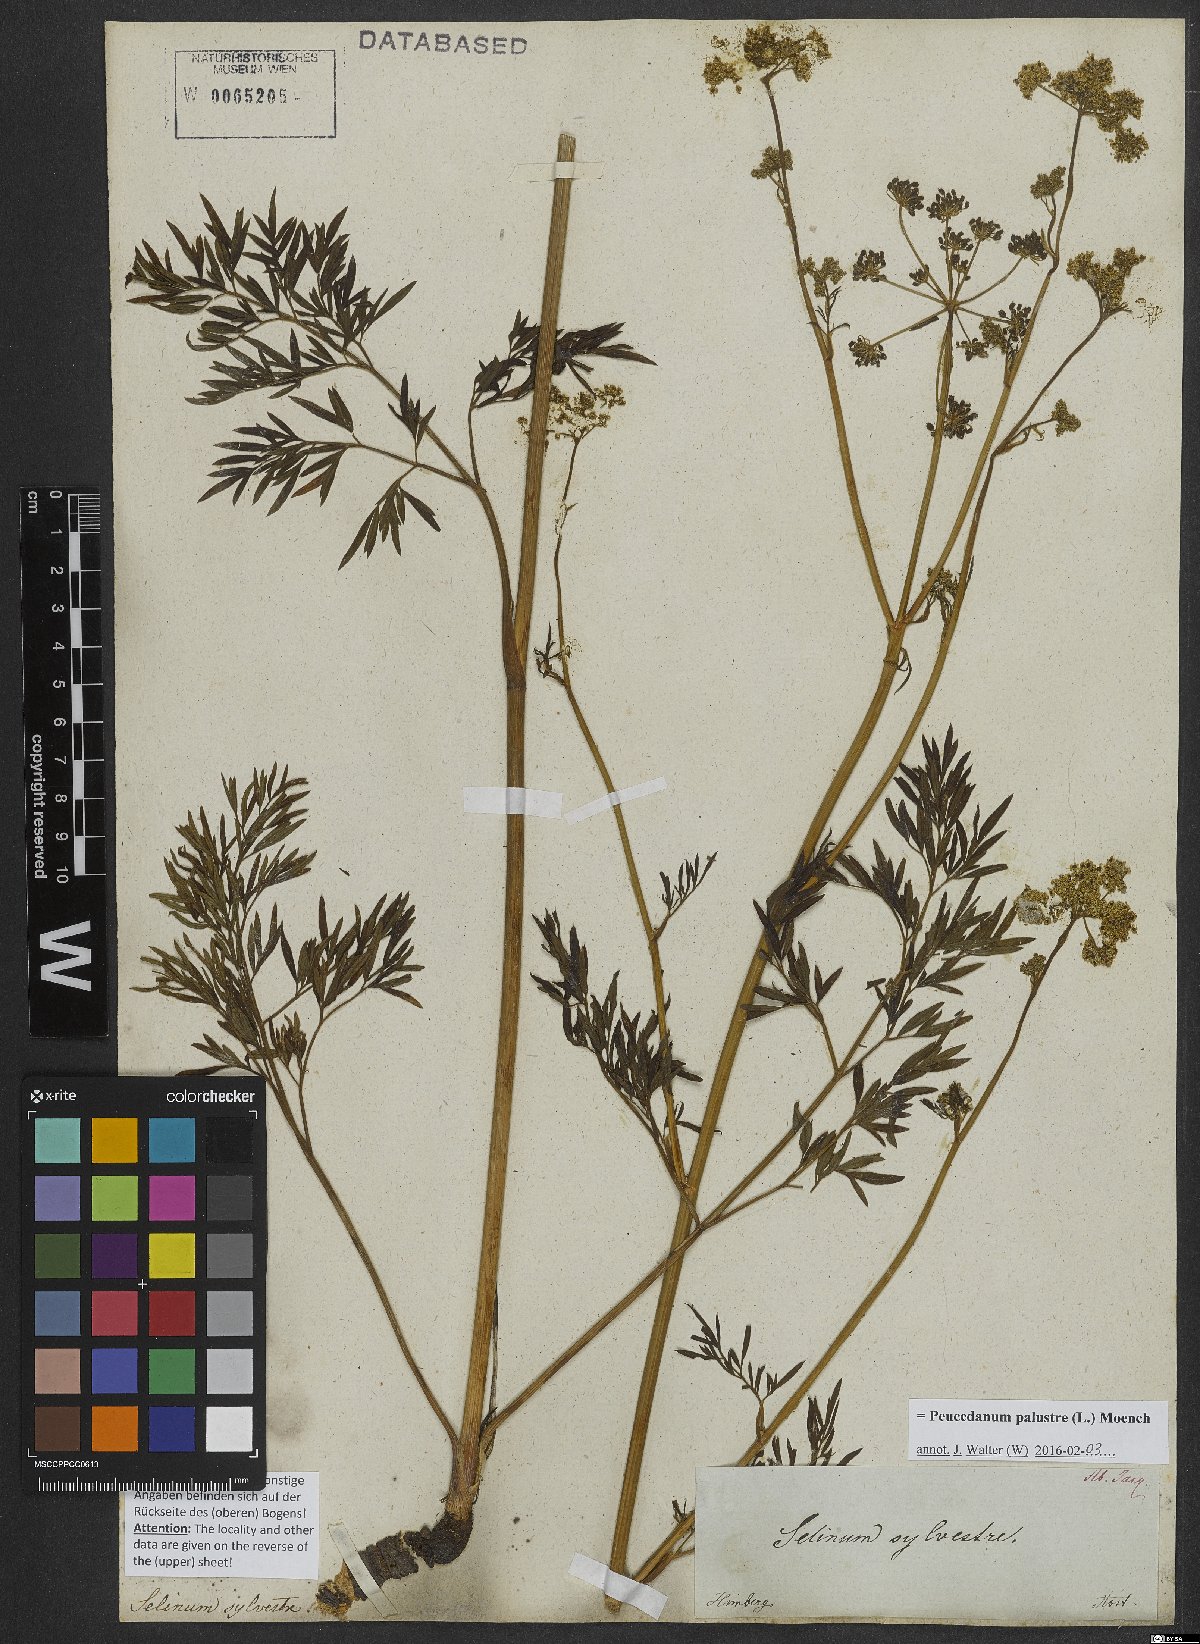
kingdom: Plantae
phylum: Tracheophyta
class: Magnoliopsida
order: Apiales
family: Apiaceae
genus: Thysselinum
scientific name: Thysselinum palustre
